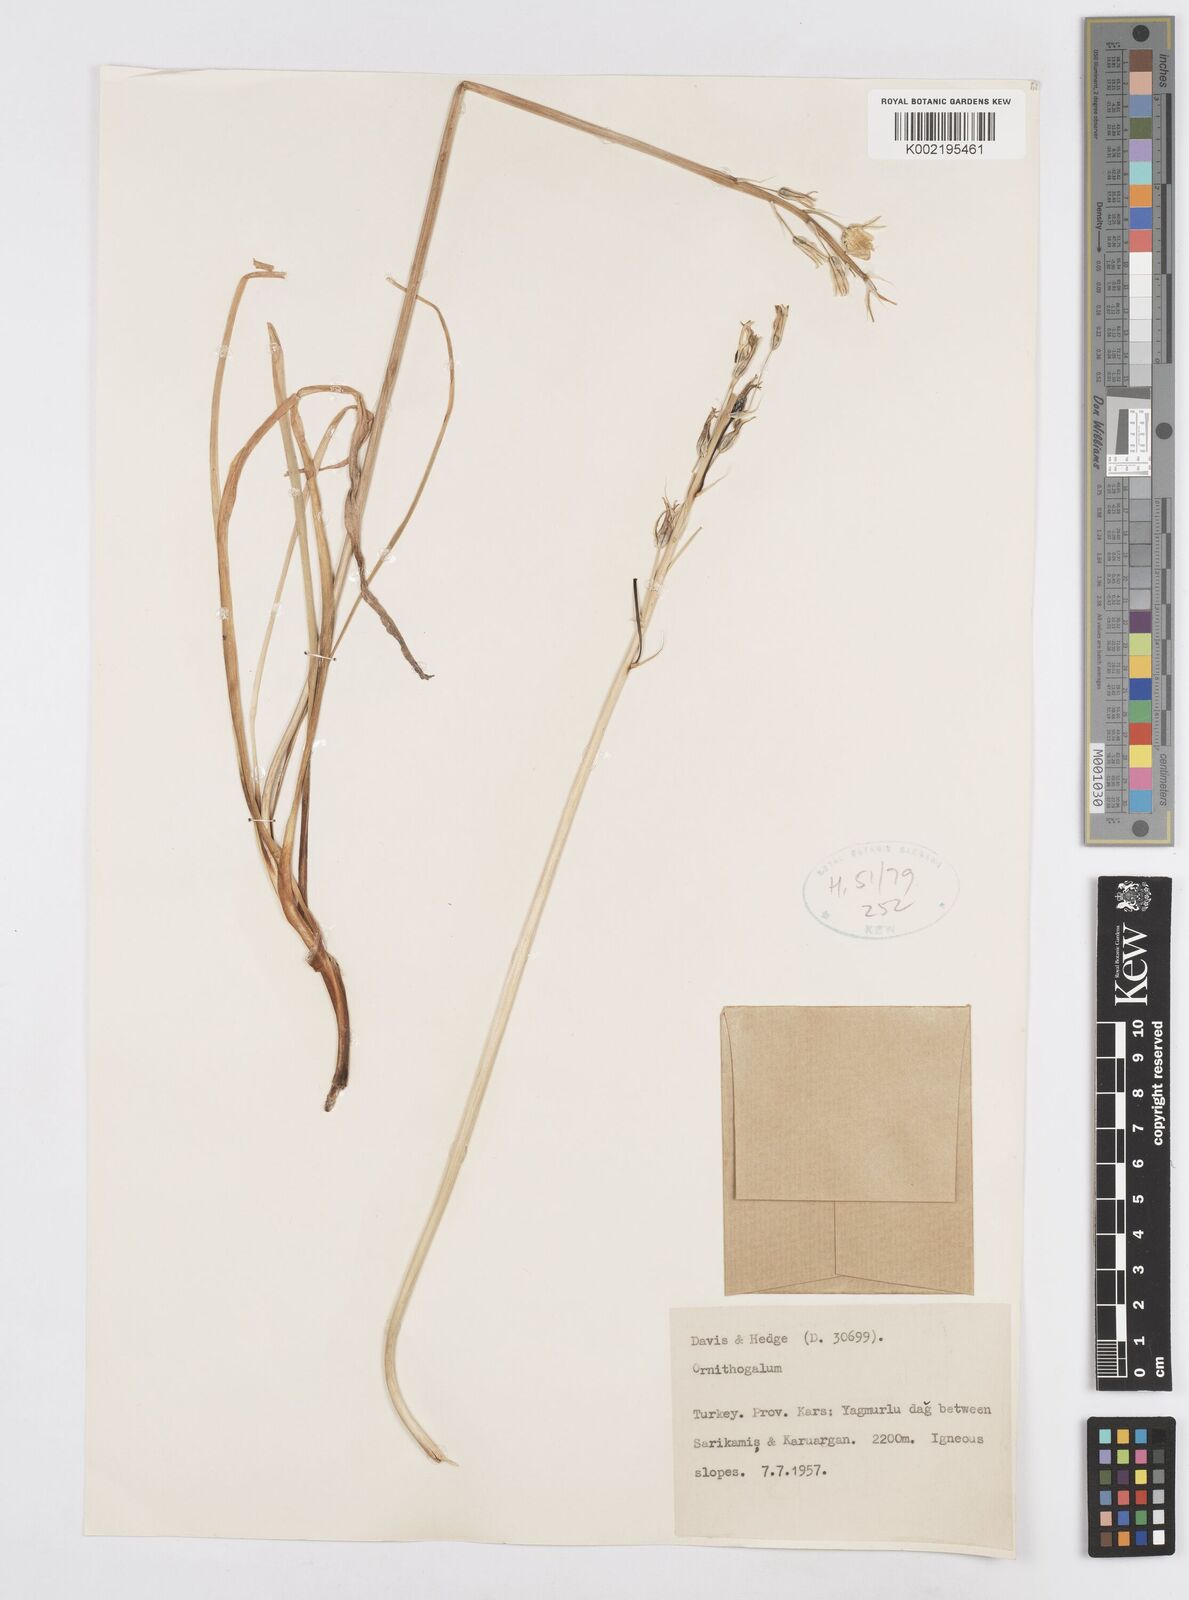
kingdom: Plantae
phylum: Tracheophyta
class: Liliopsida
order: Asparagales
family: Asparagaceae
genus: Ornithogalum
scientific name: Ornithogalum
